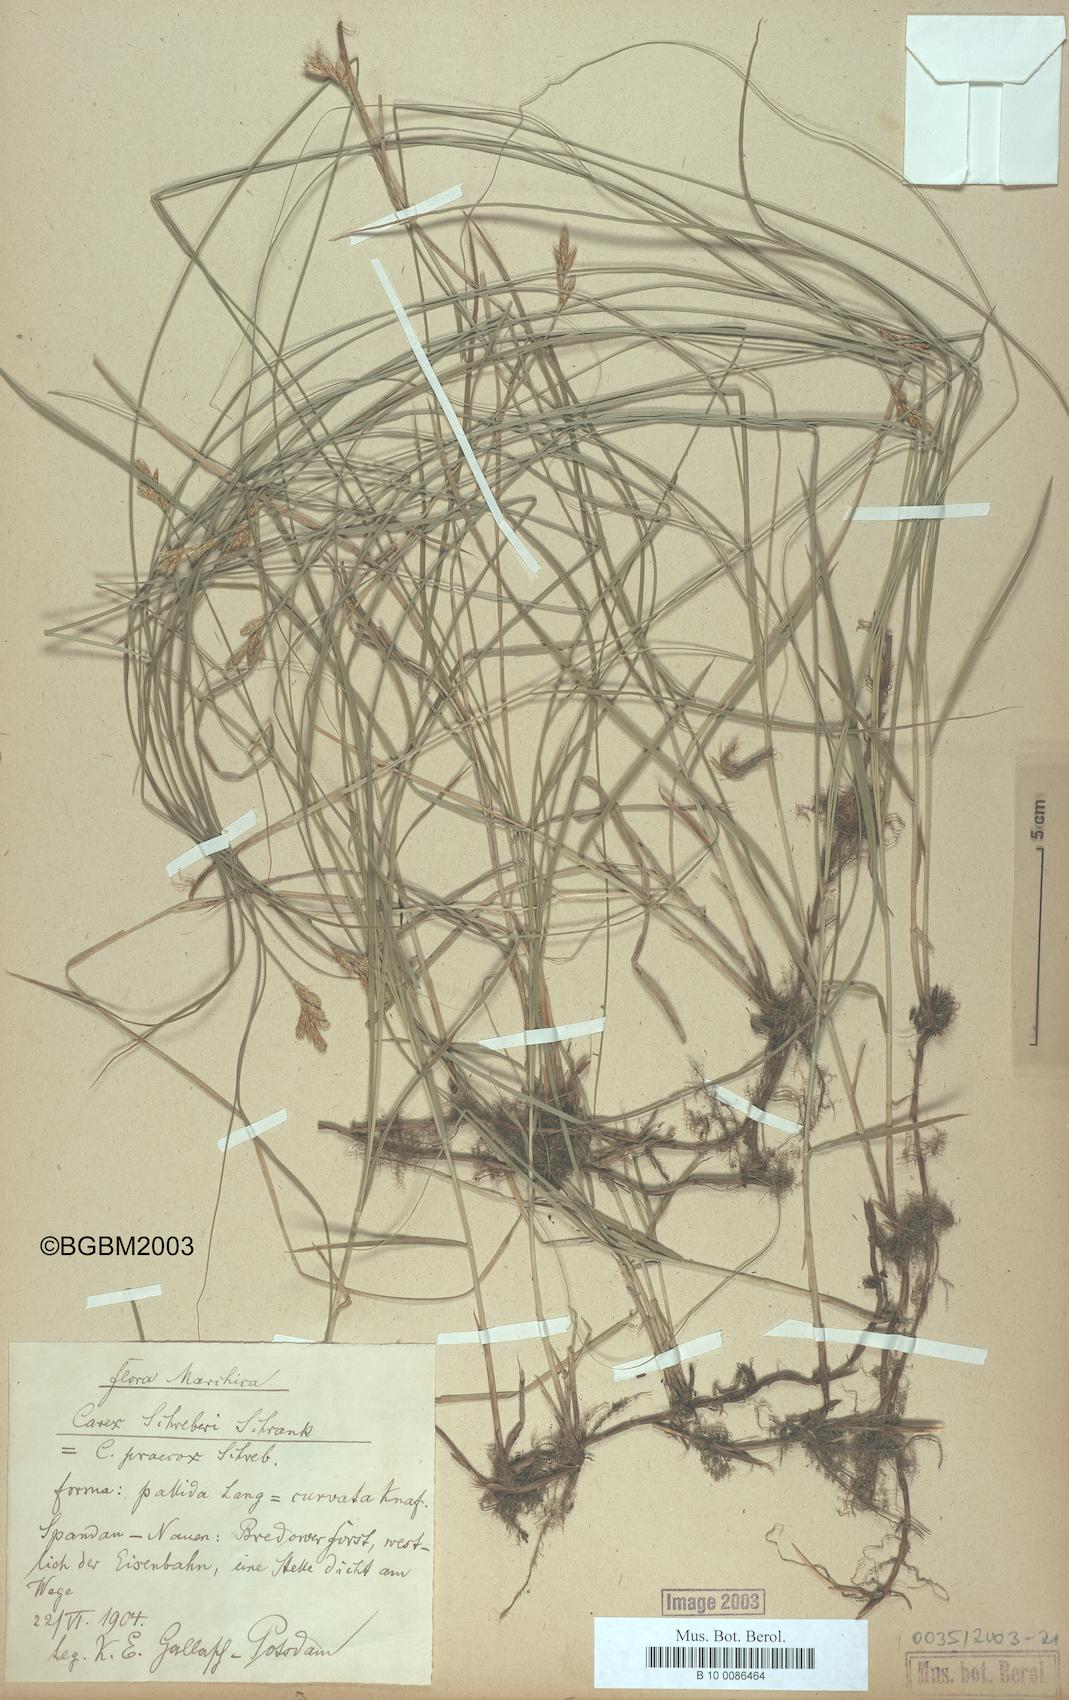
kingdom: Plantae
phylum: Tracheophyta
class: Liliopsida
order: Poales
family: Cyperaceae
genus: Carex
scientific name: Carex praecox
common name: Early sedge
